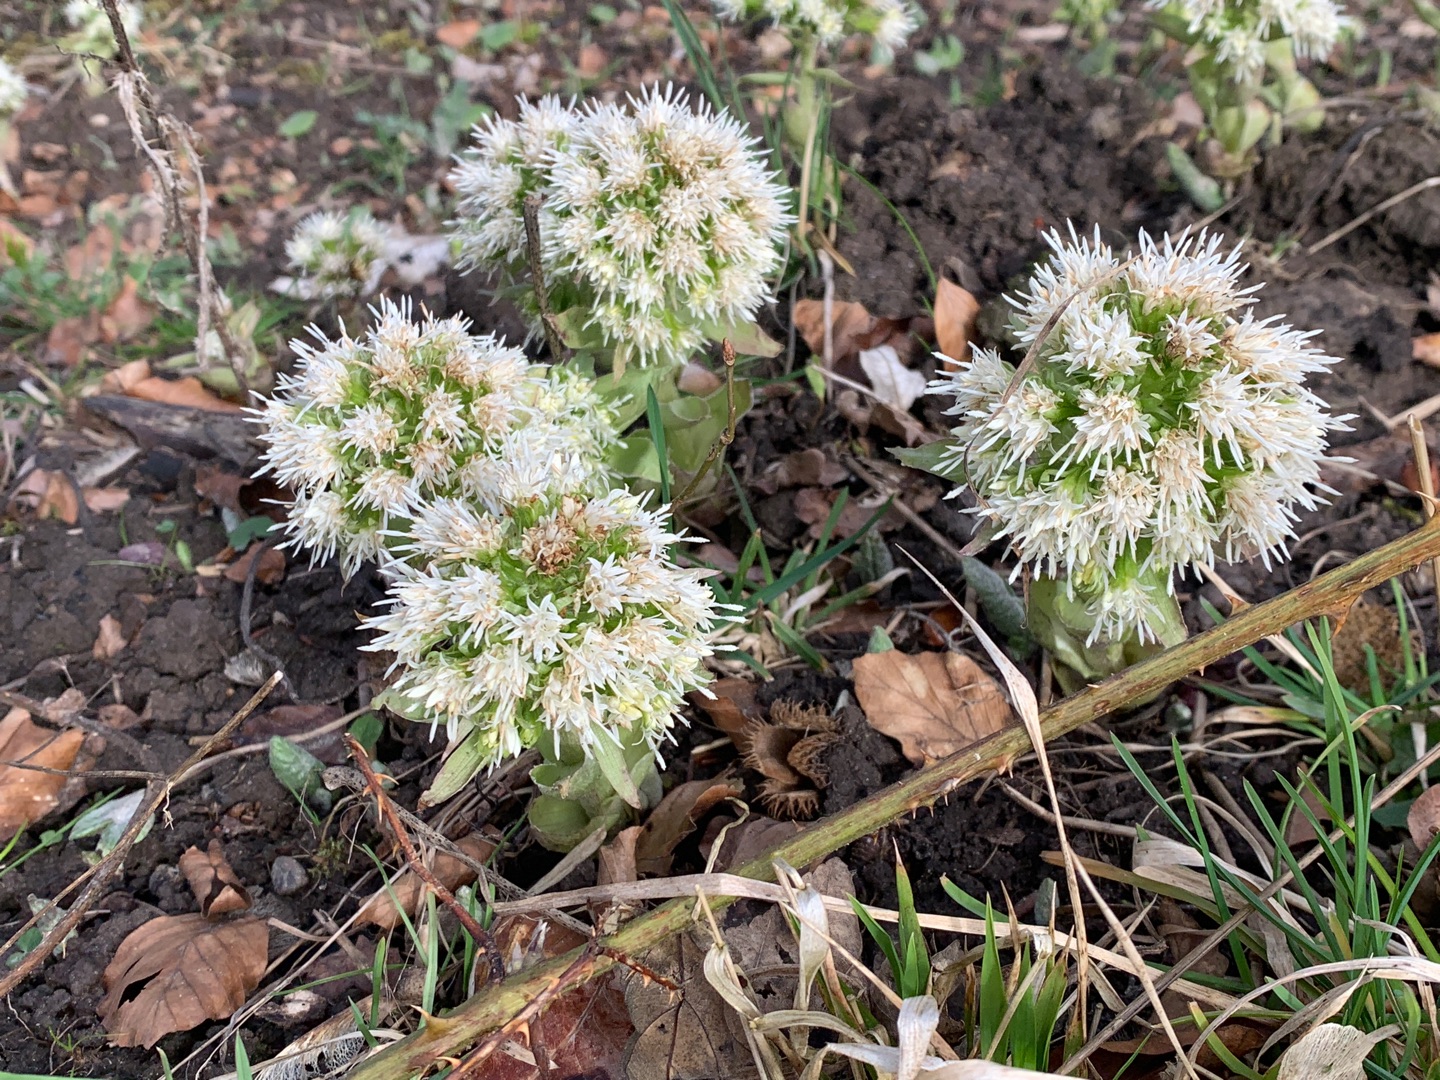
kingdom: Plantae
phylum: Tracheophyta
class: Magnoliopsida
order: Asterales
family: Asteraceae
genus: Petasites
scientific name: Petasites albus
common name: Hvid hestehov
